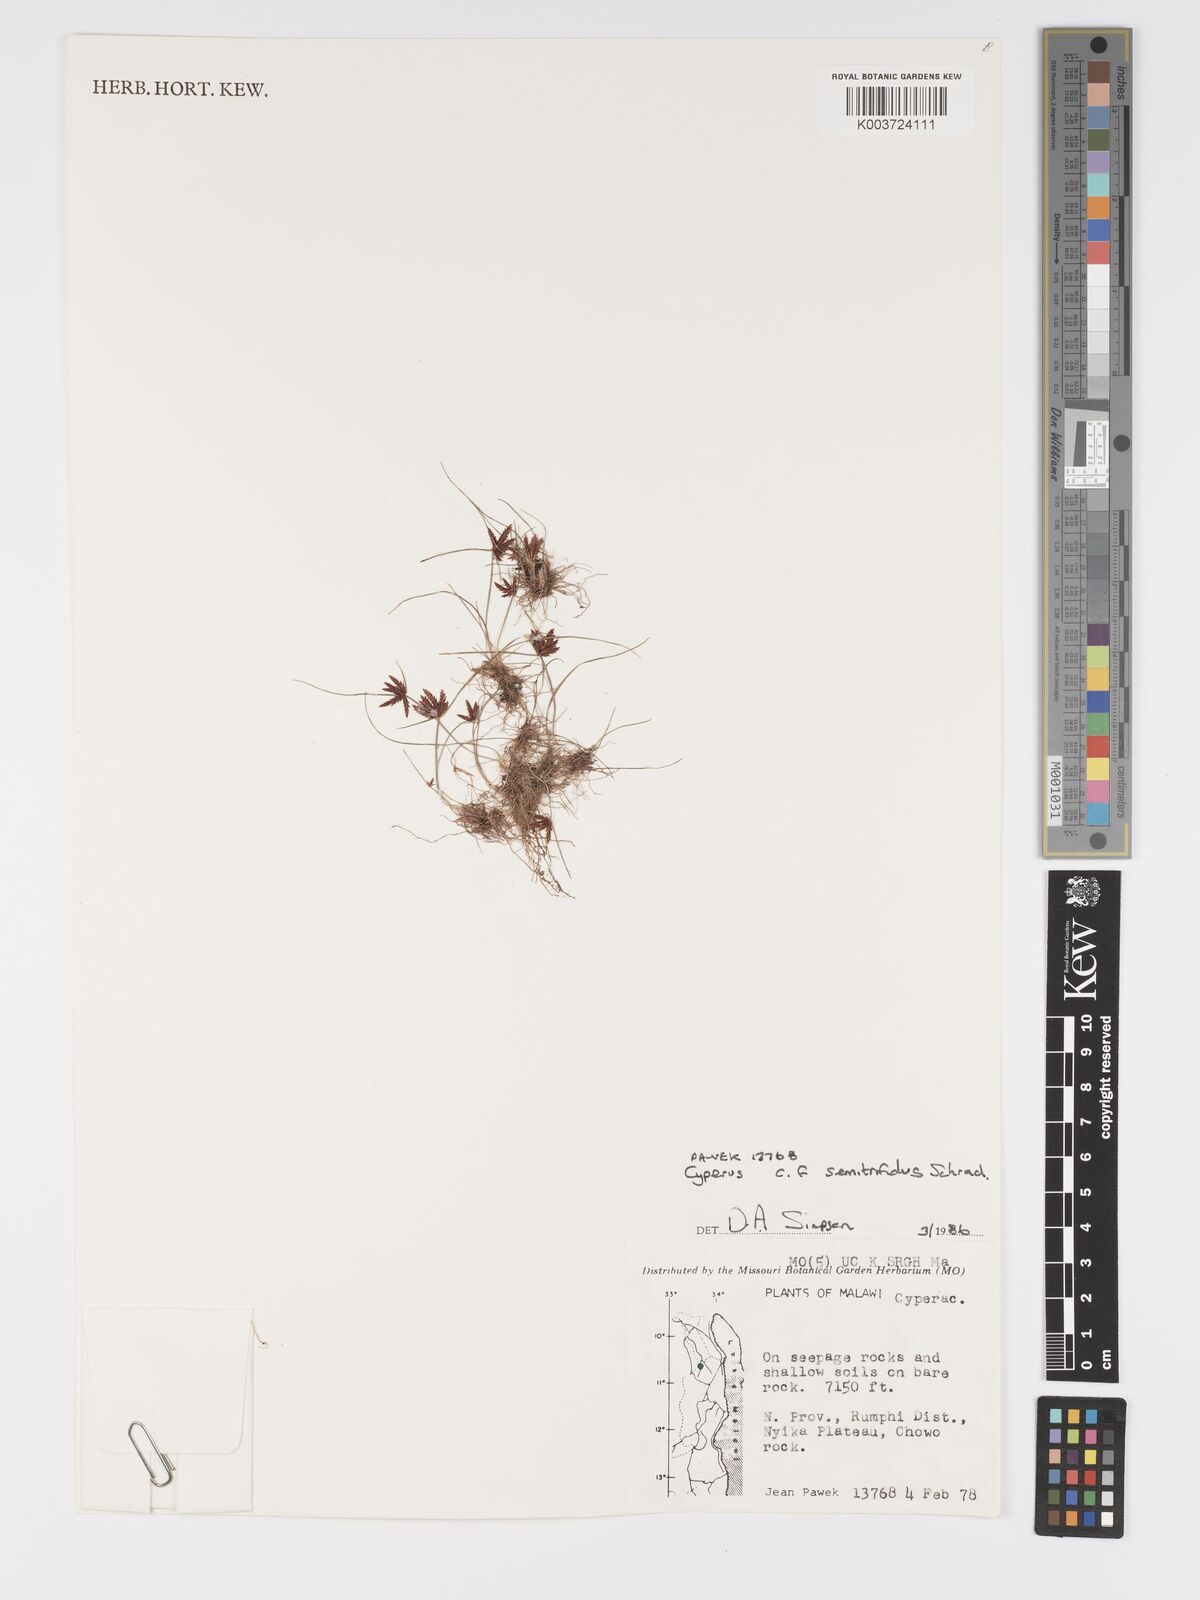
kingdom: Plantae
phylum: Tracheophyta
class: Liliopsida
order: Poales
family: Cyperaceae
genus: Cyperus
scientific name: Cyperus semitrifidus
